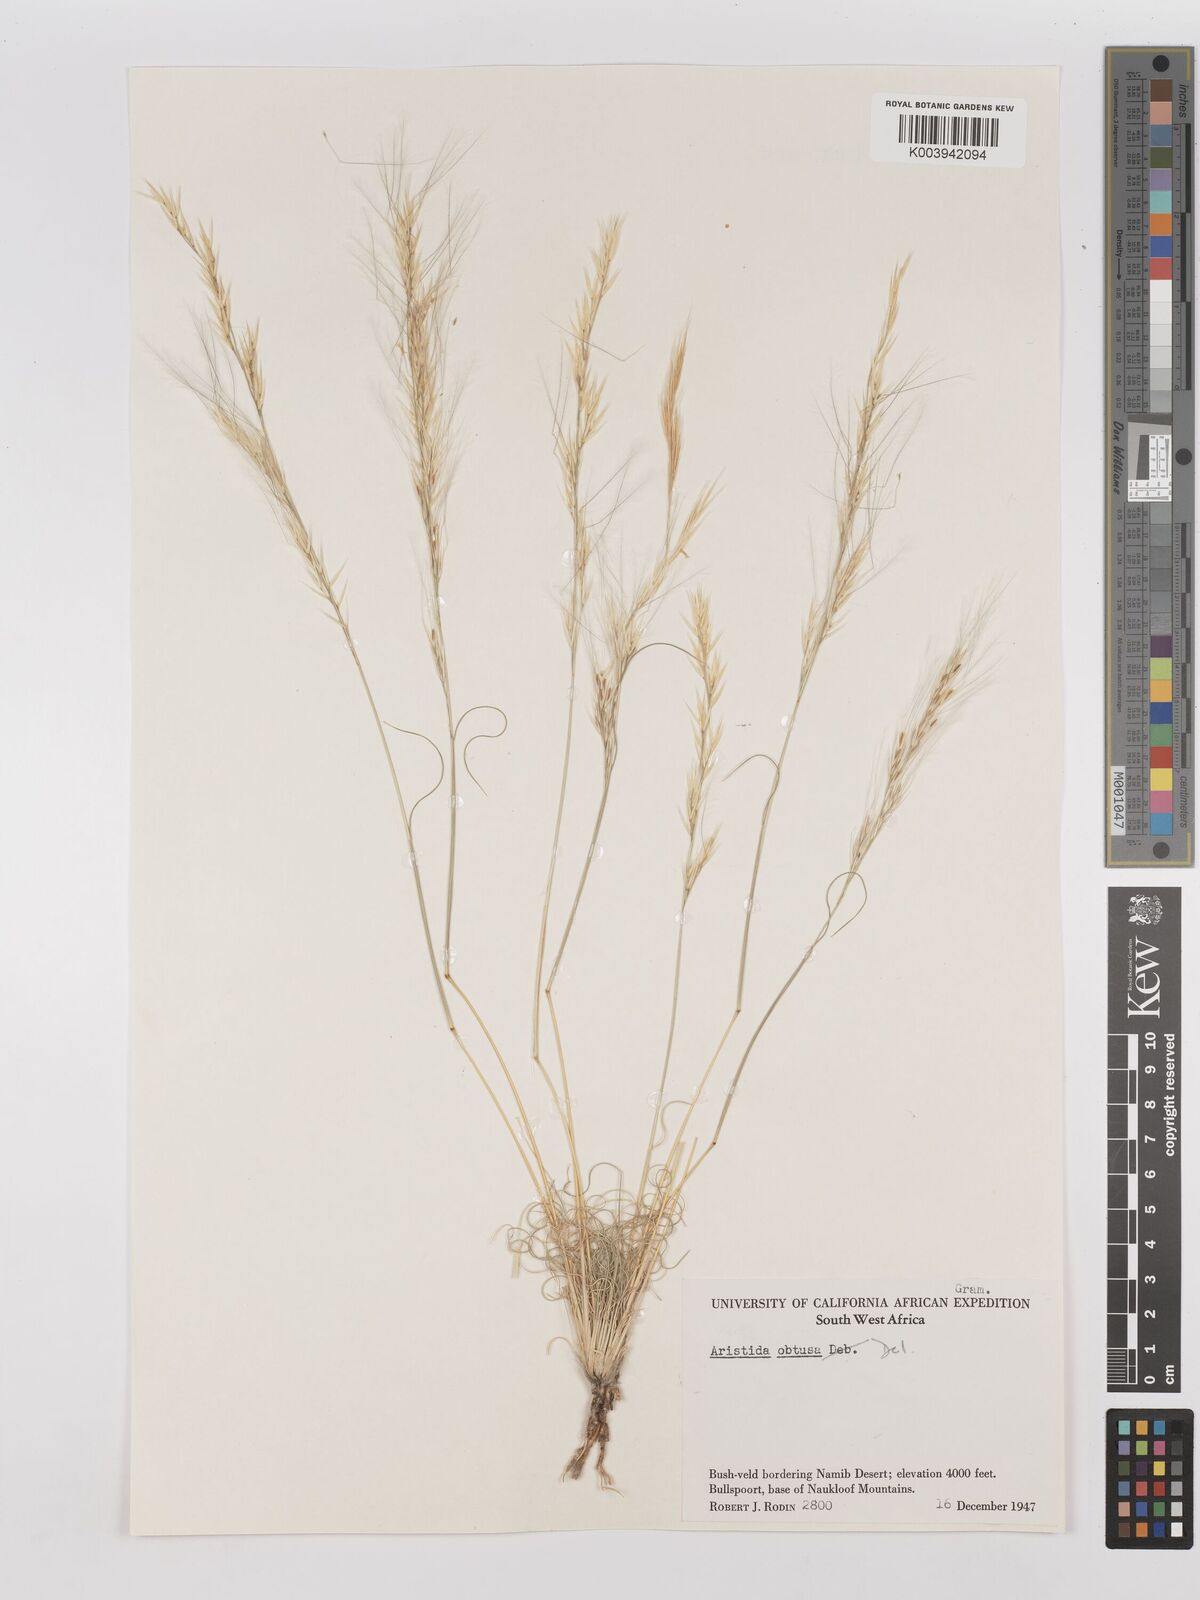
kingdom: Plantae
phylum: Tracheophyta
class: Liliopsida
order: Poales
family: Poaceae
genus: Stipagrostis
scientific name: Stipagrostis obtusa
